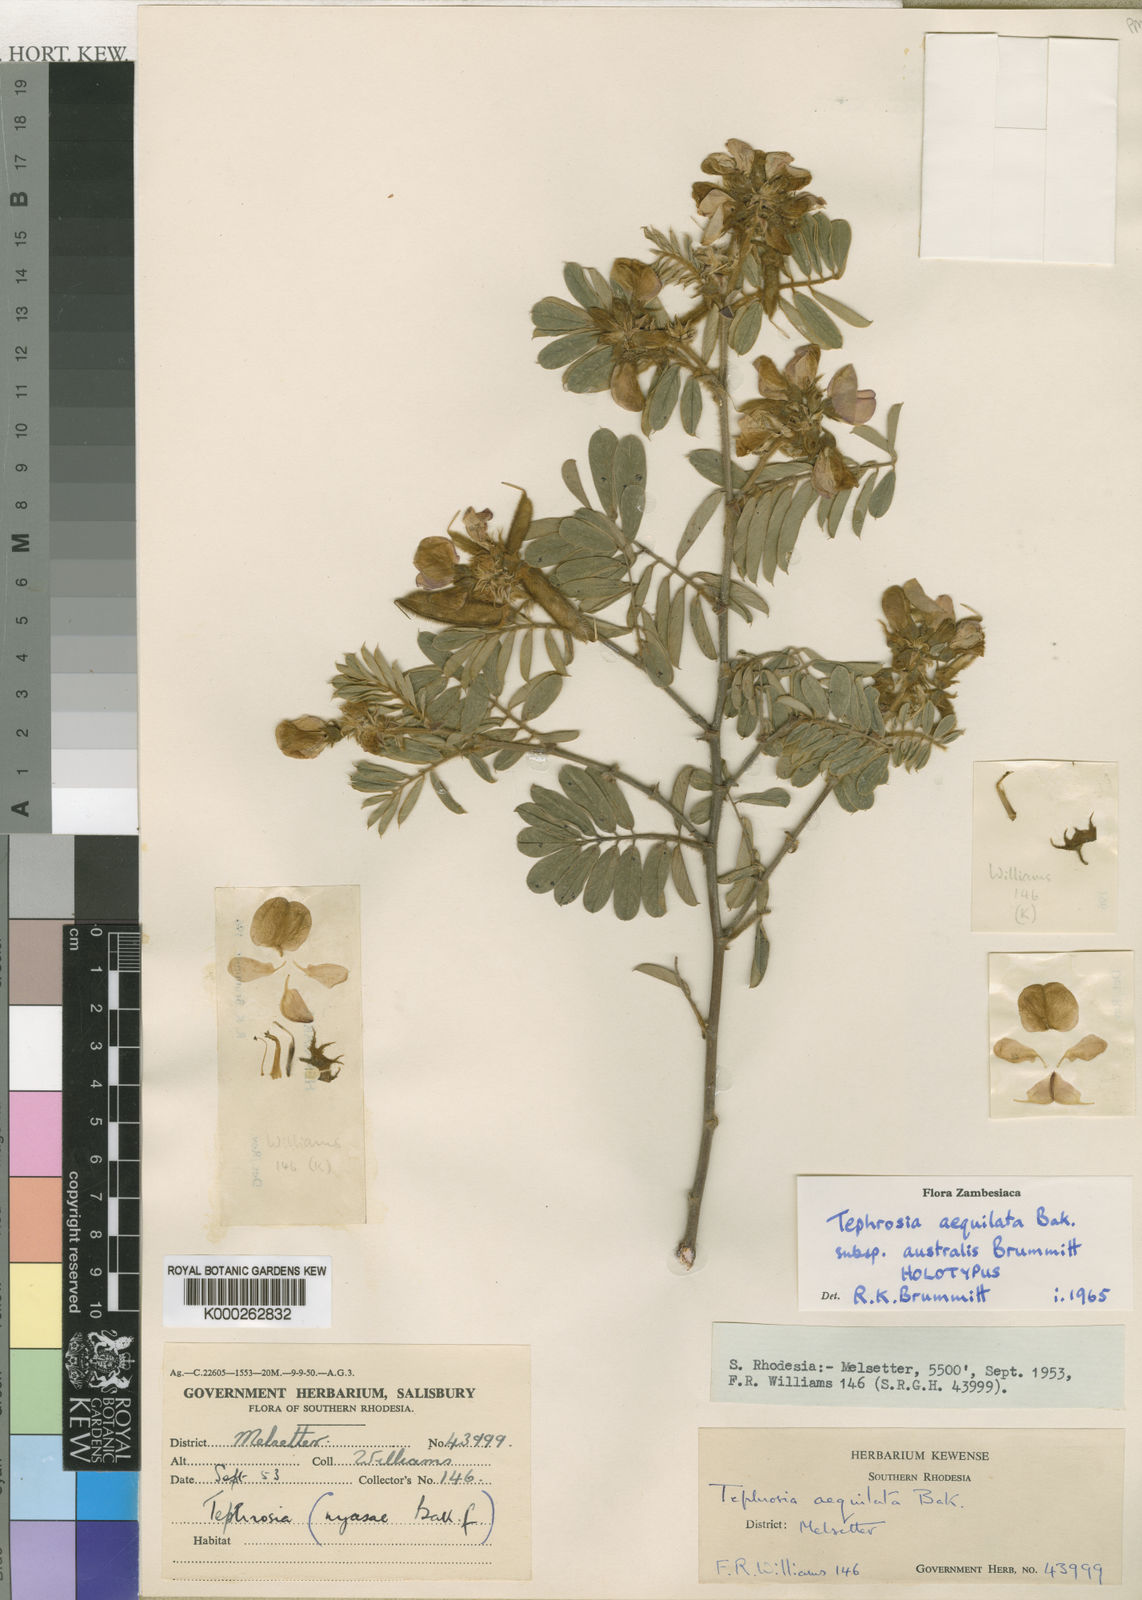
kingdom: Plantae
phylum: Tracheophyta
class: Magnoliopsida
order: Fabales
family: Fabaceae
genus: Tephrosia
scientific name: Tephrosia aequilata
